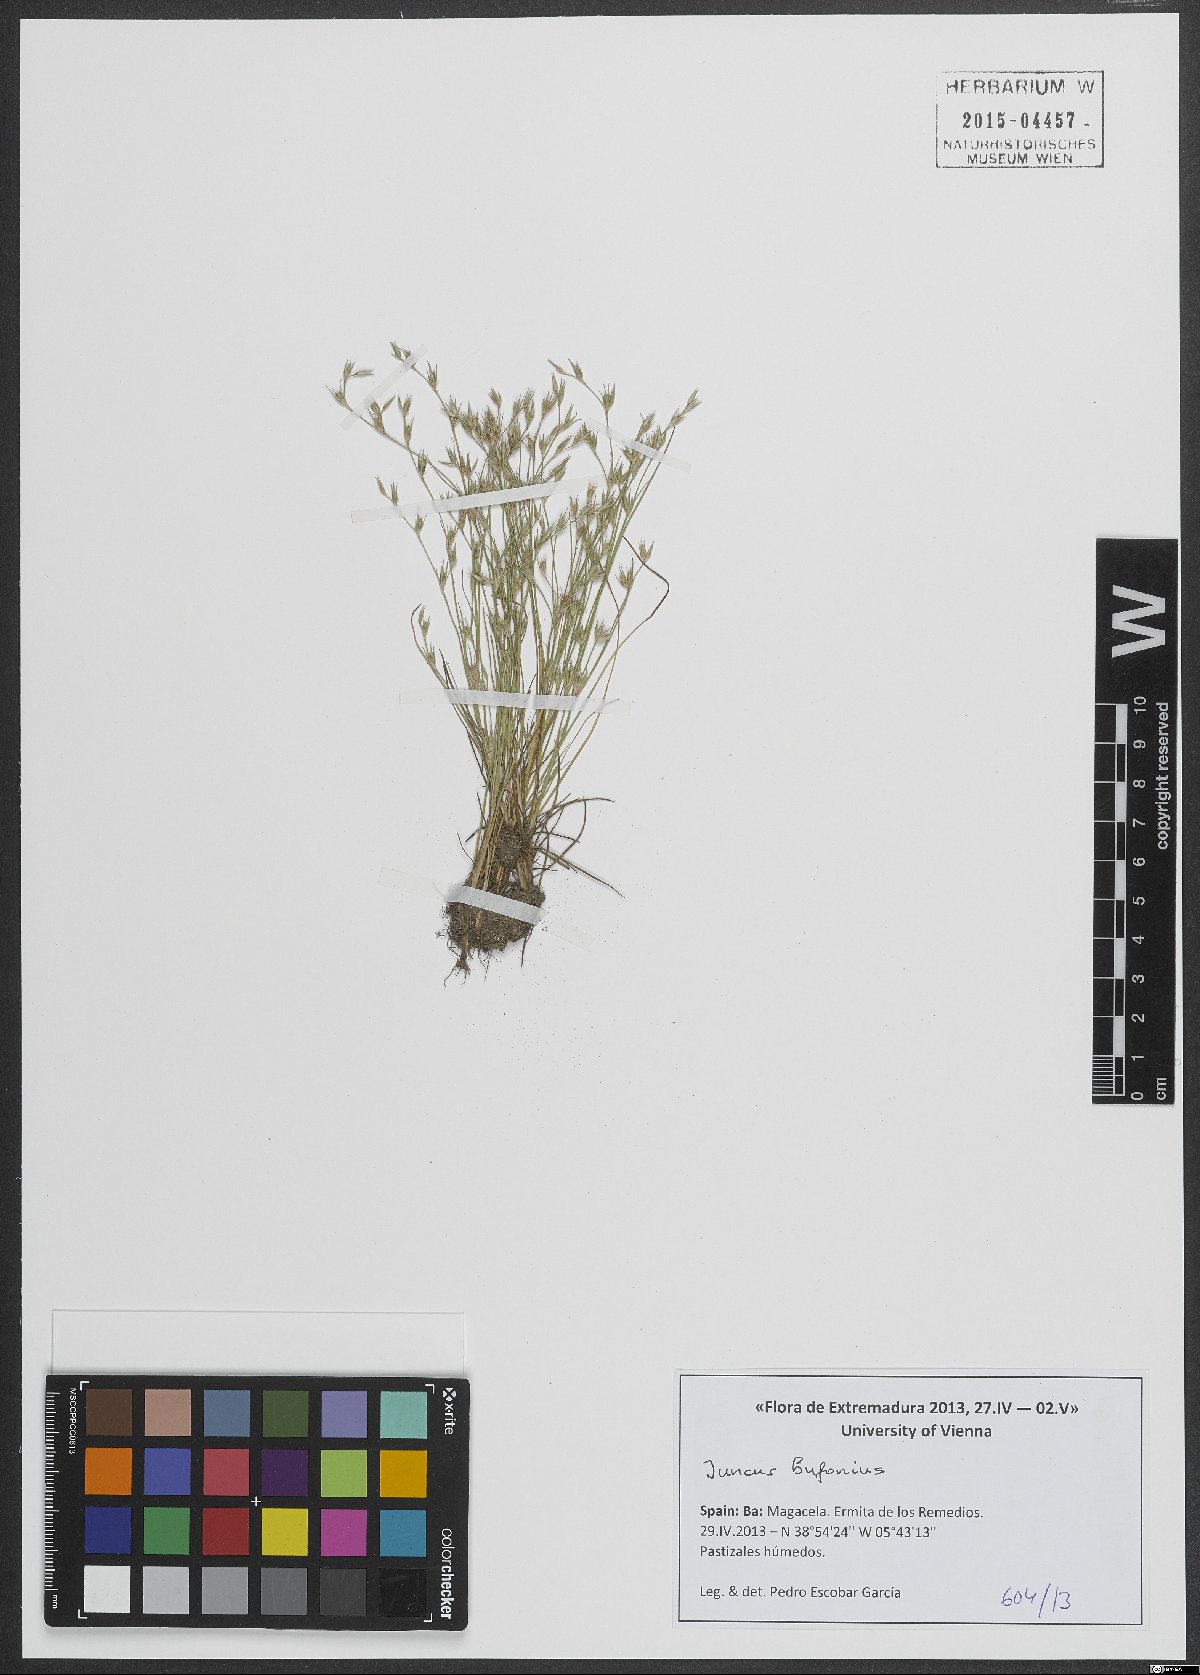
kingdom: Plantae
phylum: Tracheophyta
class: Liliopsida
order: Poales
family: Juncaceae
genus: Juncus
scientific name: Juncus bufonius
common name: Toad rush
